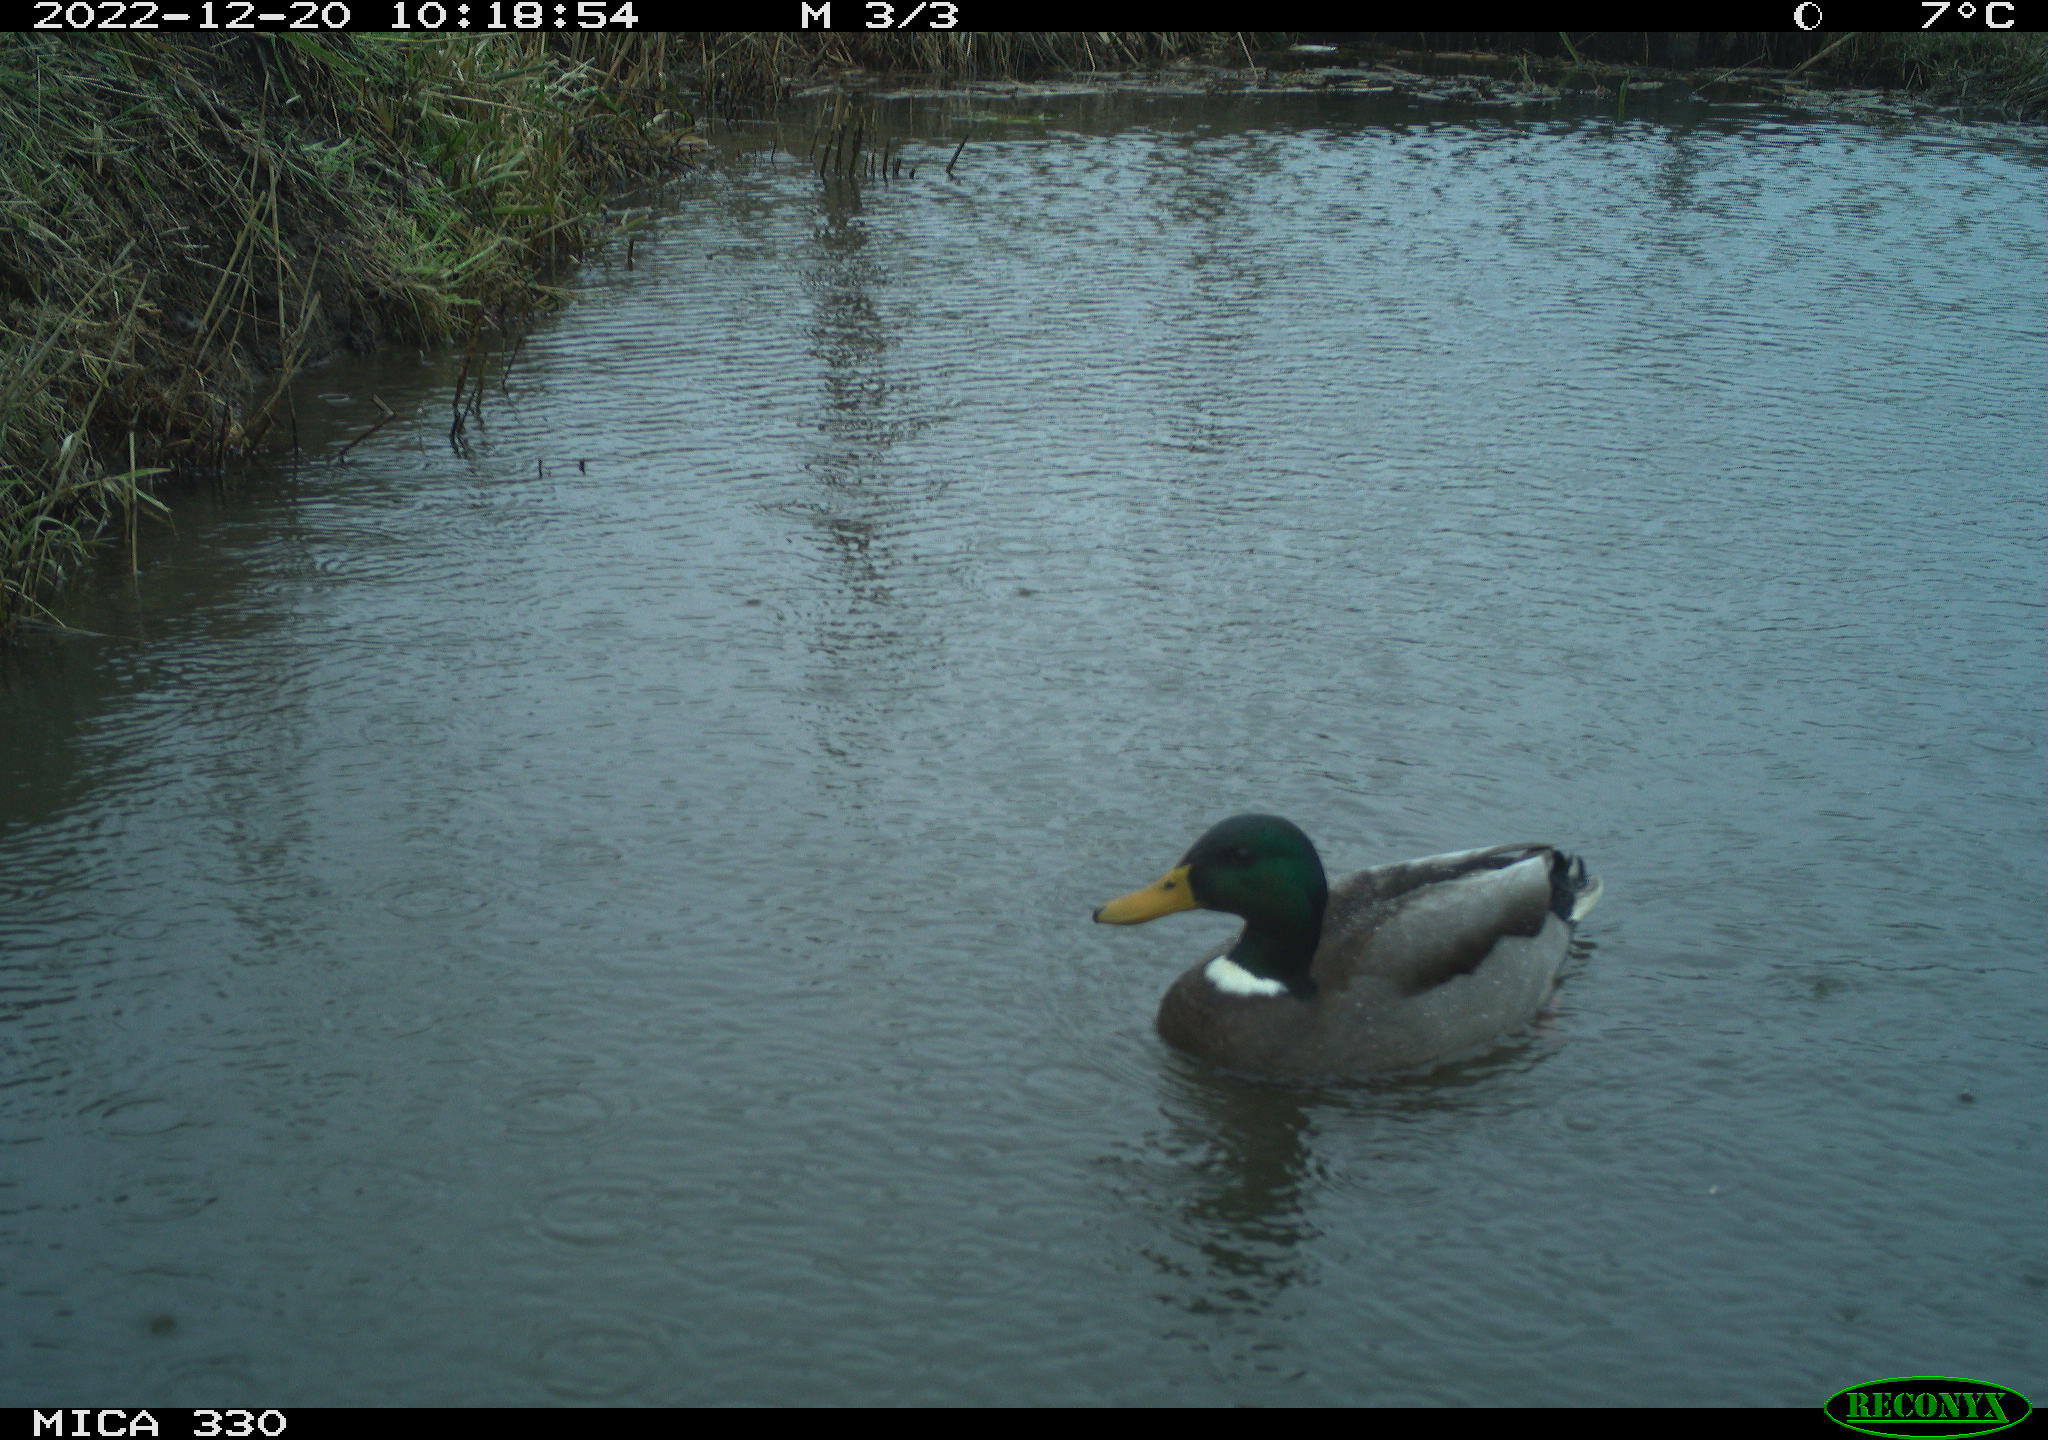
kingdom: Animalia
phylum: Chordata
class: Aves
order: Anseriformes
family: Anatidae
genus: Anas
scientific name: Anas
